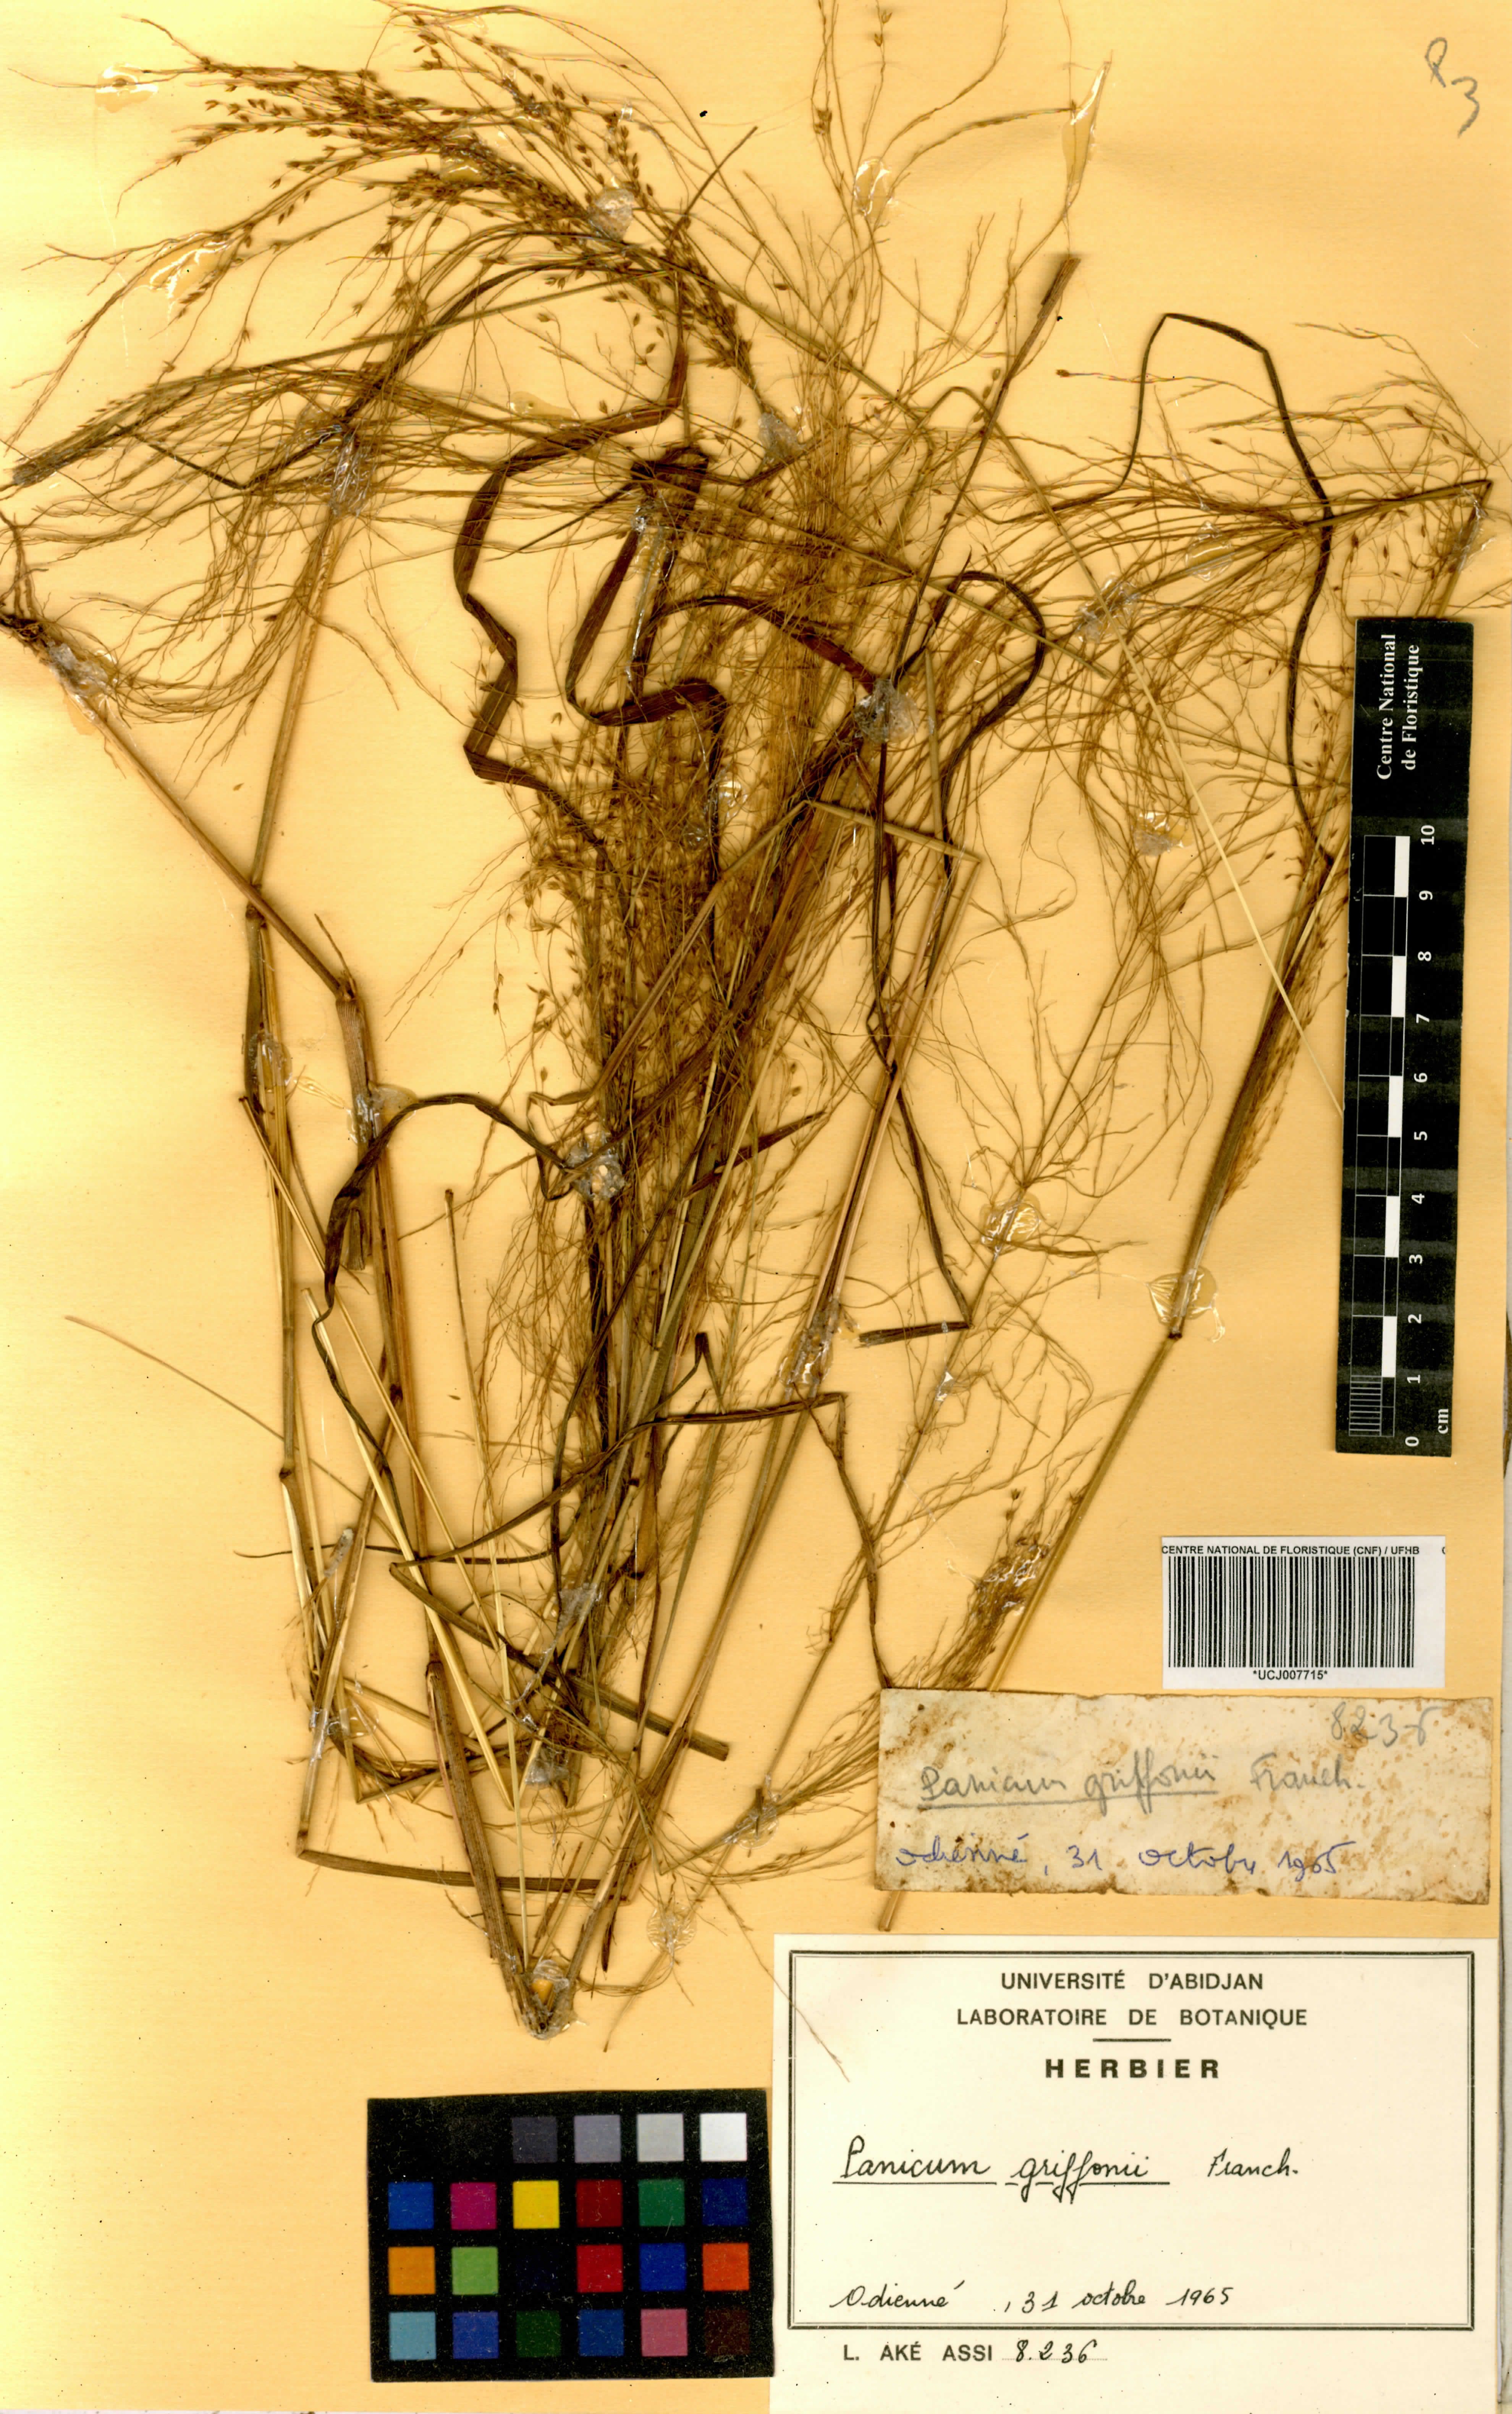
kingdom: Plantae
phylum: Tracheophyta
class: Liliopsida
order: Poales
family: Poaceae
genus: Panicum
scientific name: Panicum griffonii
